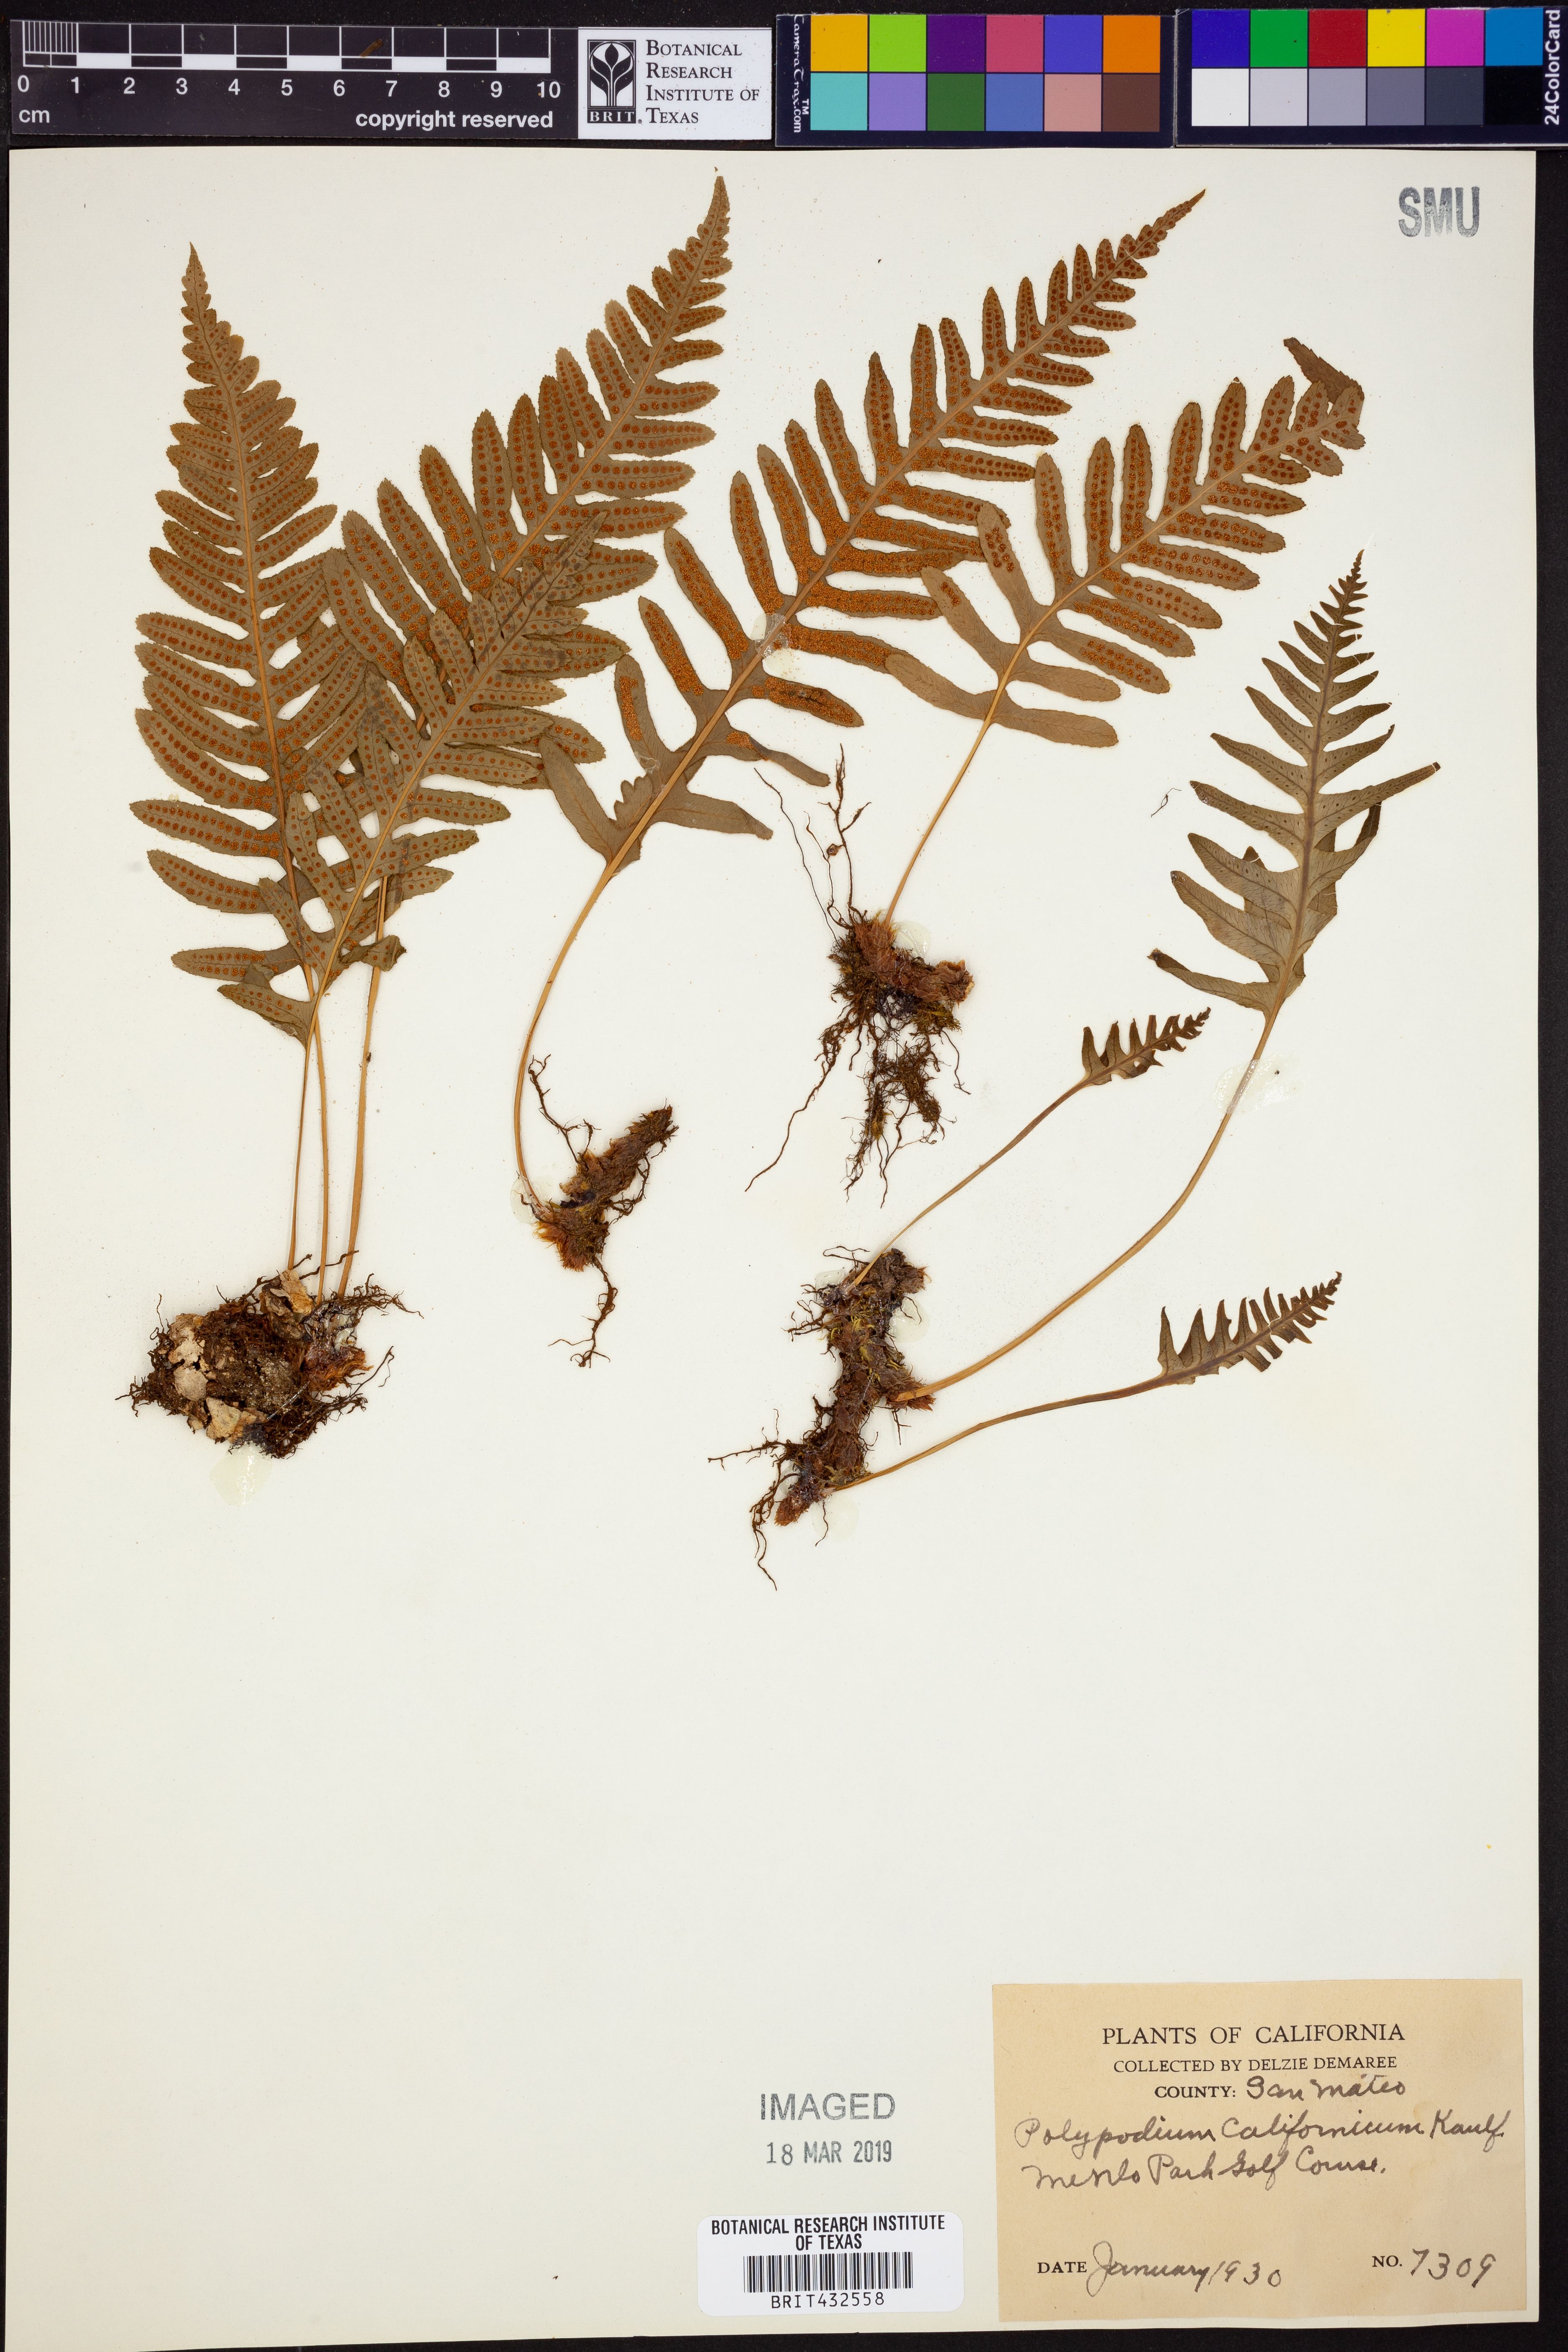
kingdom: Plantae
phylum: Tracheophyta
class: Polypodiopsida
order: Polypodiales
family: Polypodiaceae
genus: Polypodium
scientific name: Polypodium californicum
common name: California polypody
